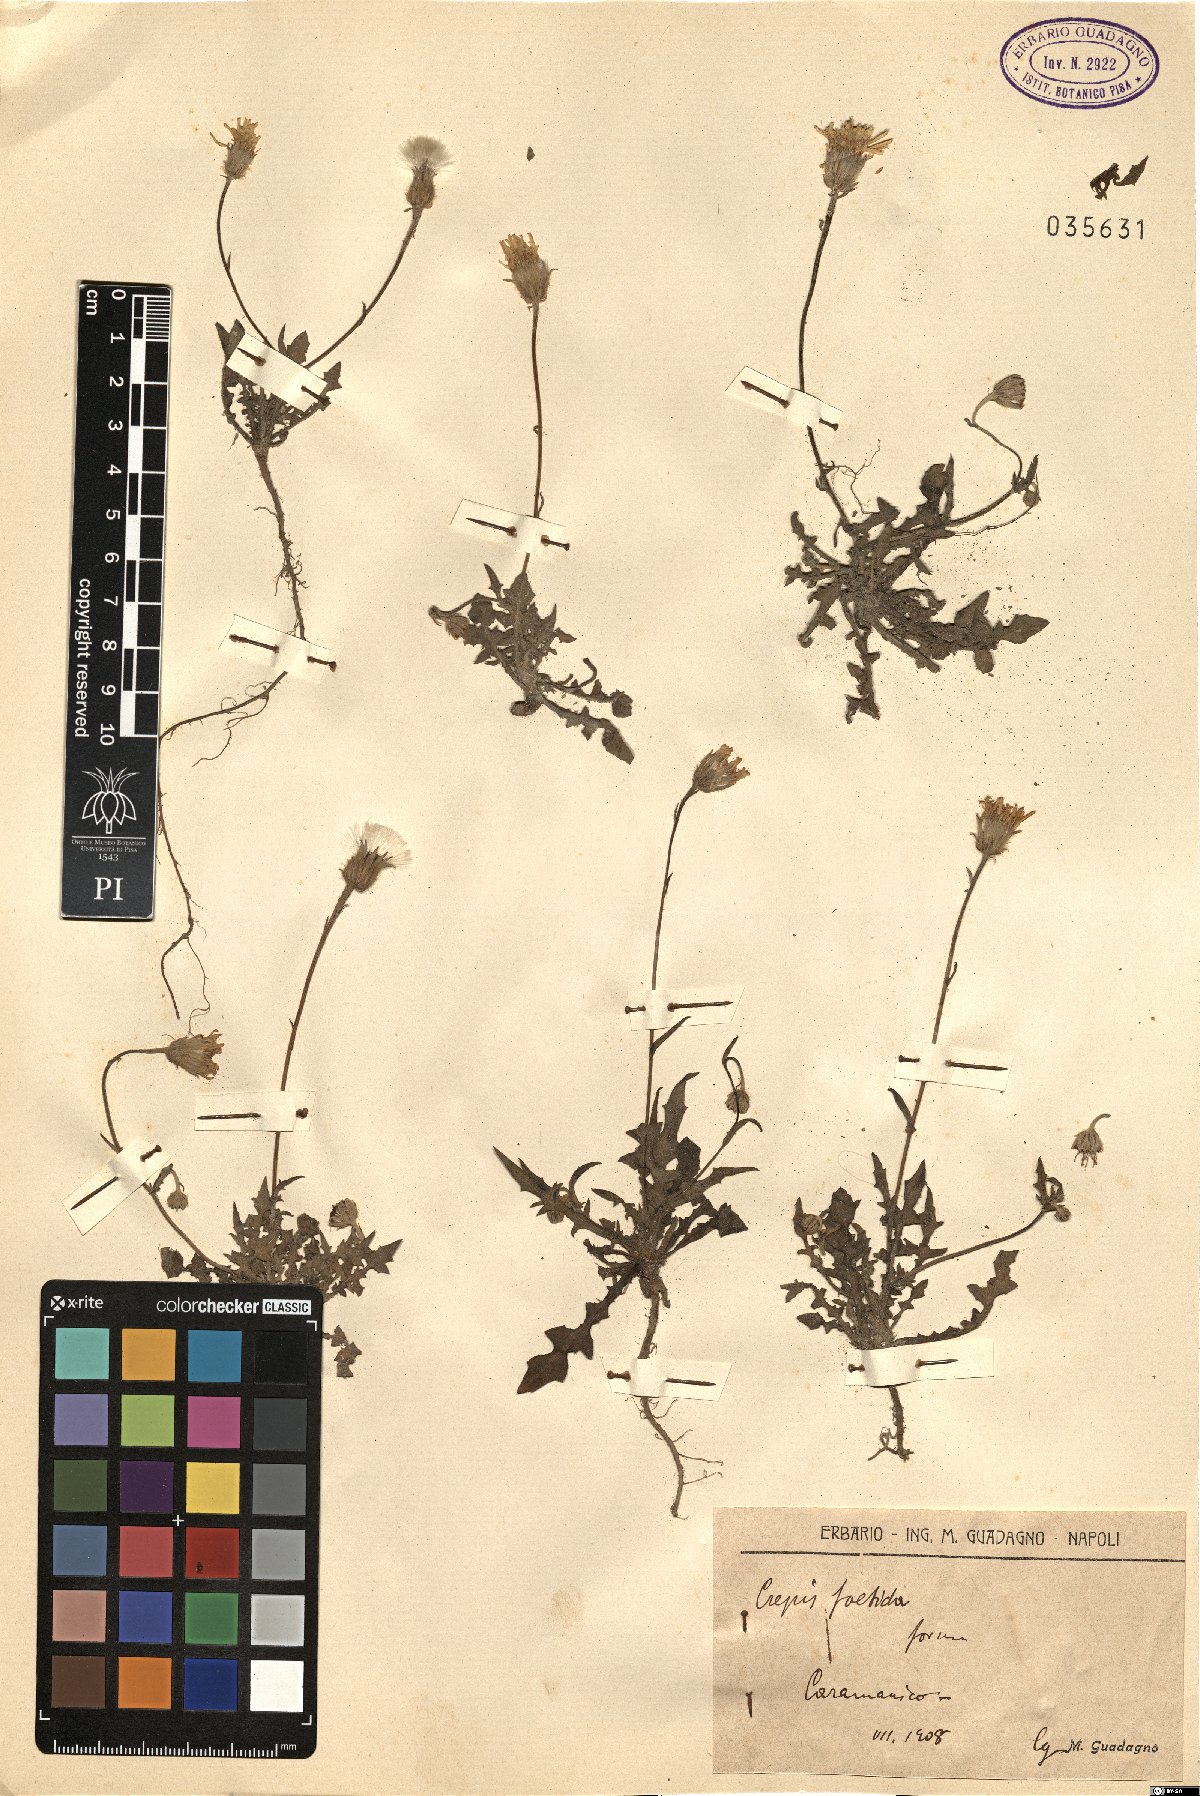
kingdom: Plantae
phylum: Tracheophyta
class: Magnoliopsida
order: Asterales
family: Asteraceae
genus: Crepis
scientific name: Crepis foetida
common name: Stinking hawk's-beard
